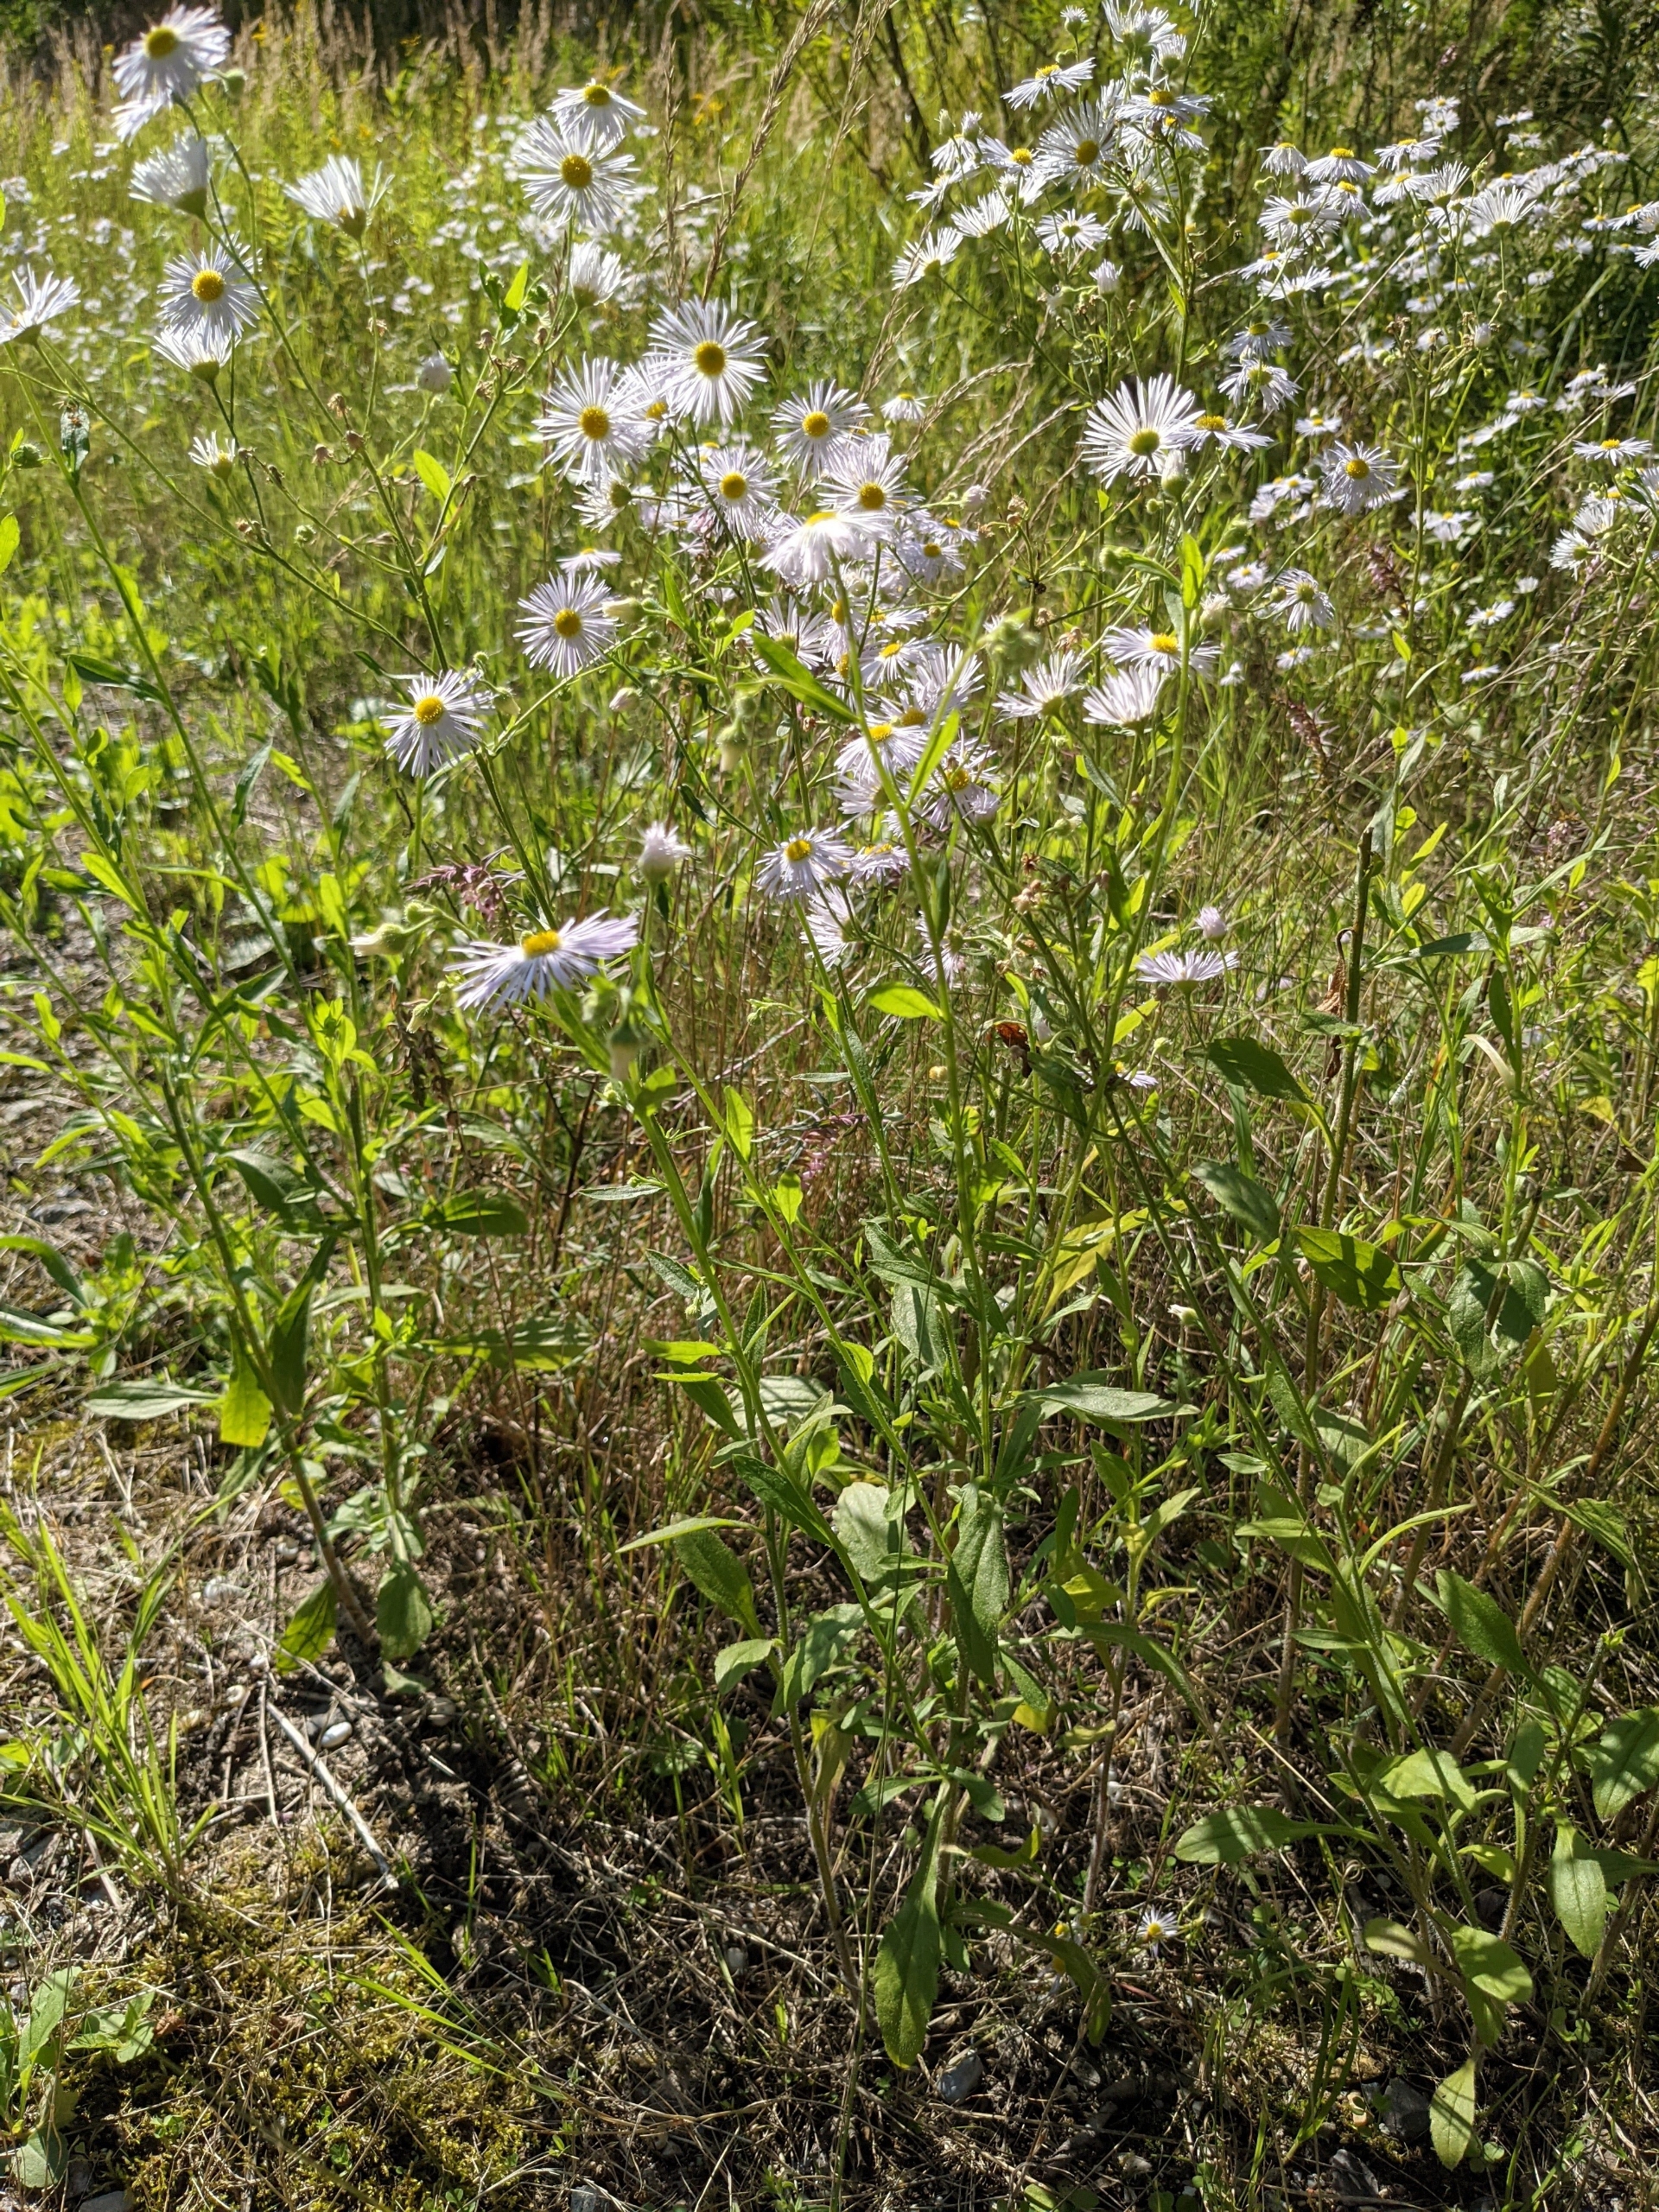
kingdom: Plantae
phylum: Tracheophyta
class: Magnoliopsida
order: Asterales
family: Asteraceae
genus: Erigeron
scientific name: Erigeron annuus
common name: Smalstråle
